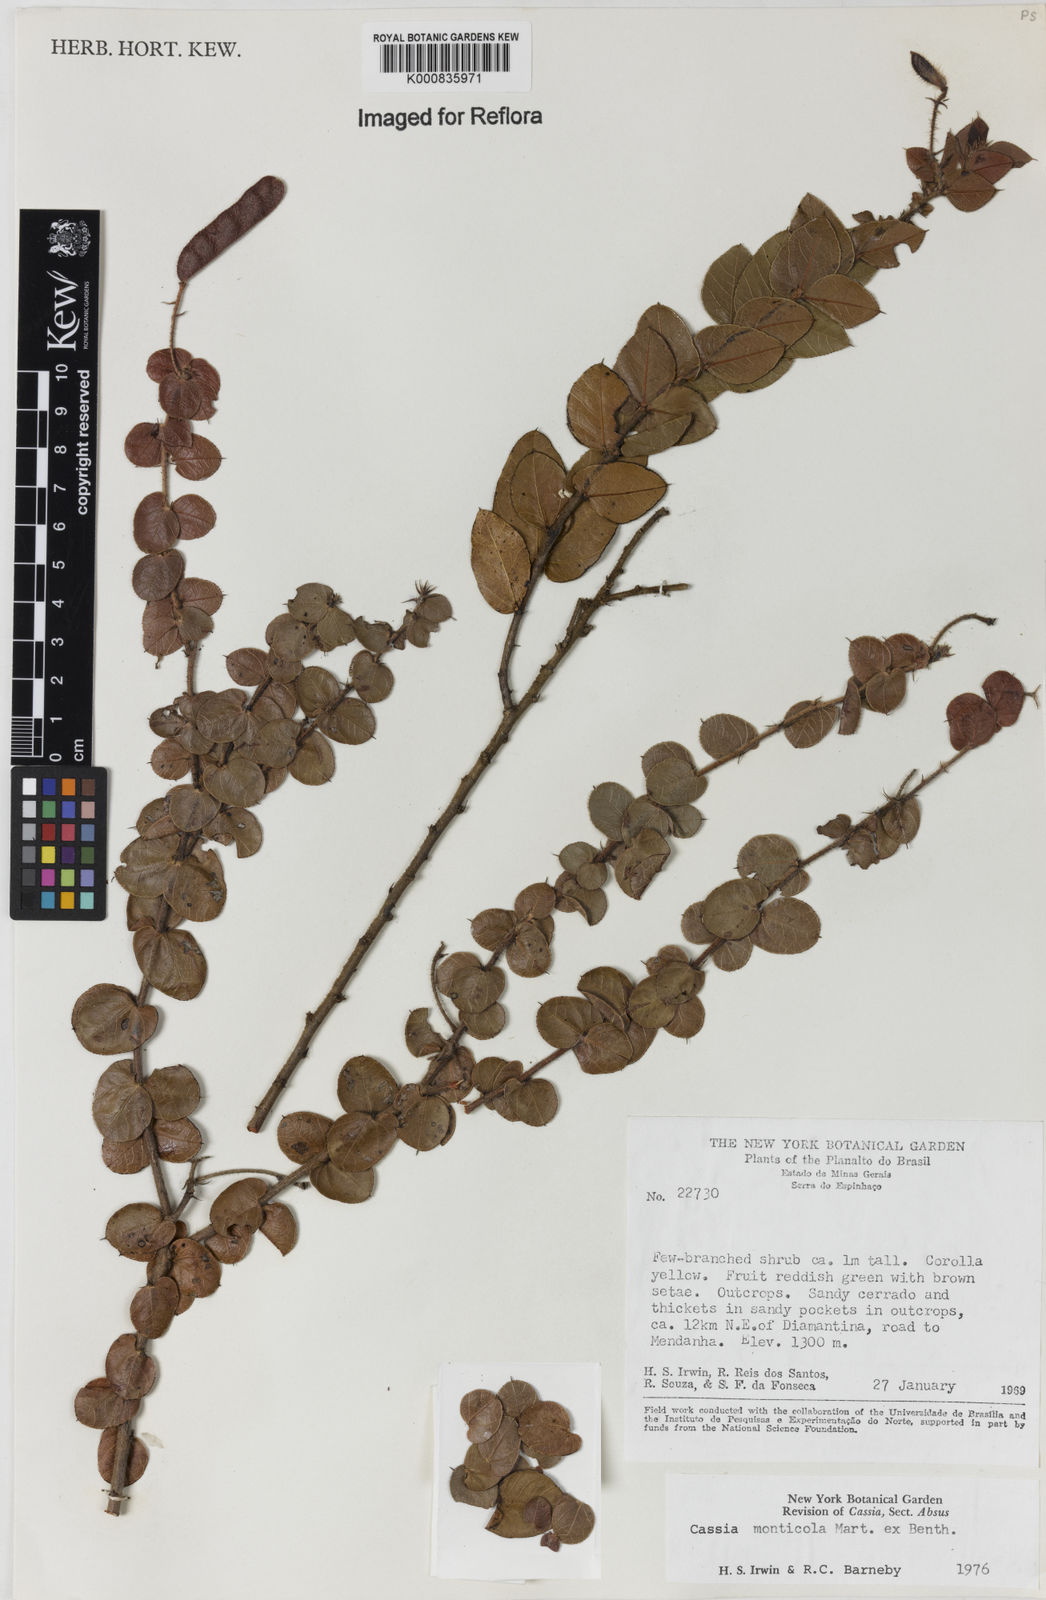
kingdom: Plantae
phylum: Tracheophyta
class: Magnoliopsida
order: Fabales
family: Fabaceae
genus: Chamaecrista
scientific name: Chamaecrista monticola
